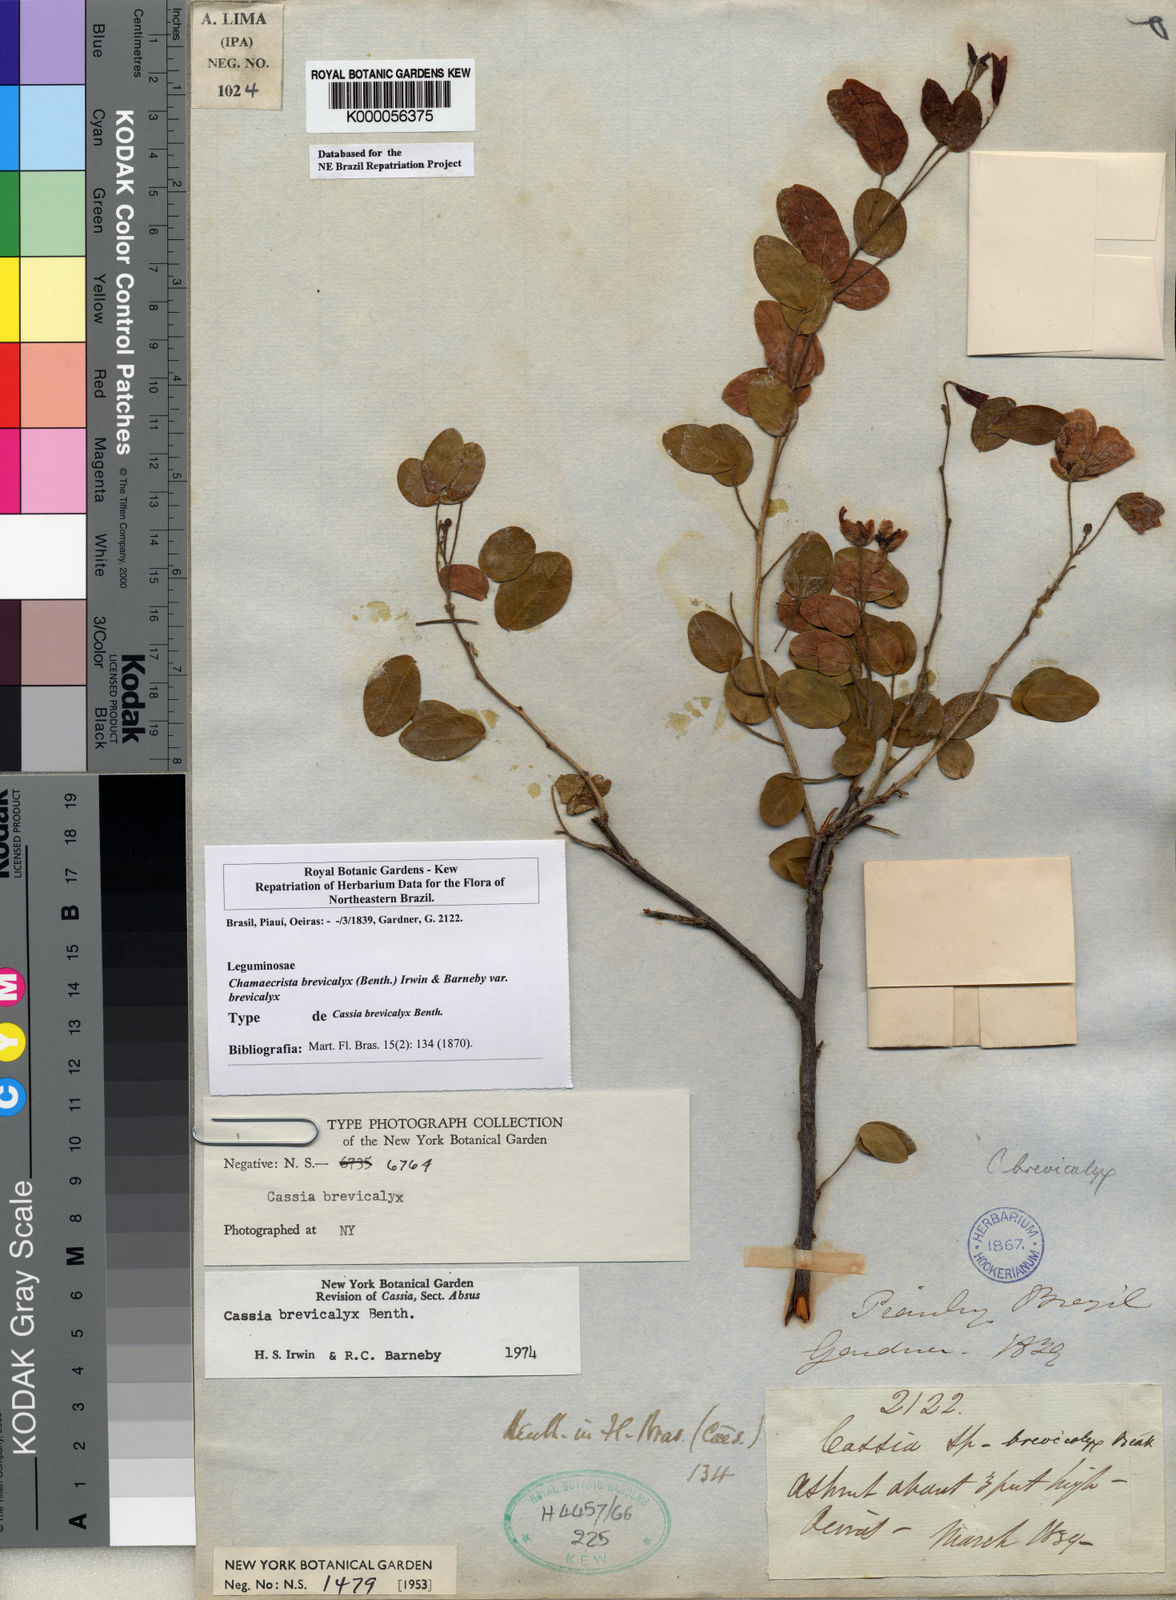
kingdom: Plantae
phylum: Tracheophyta
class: Magnoliopsida
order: Fabales
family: Fabaceae
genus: Chamaecrista
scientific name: Chamaecrista brevicalyx
